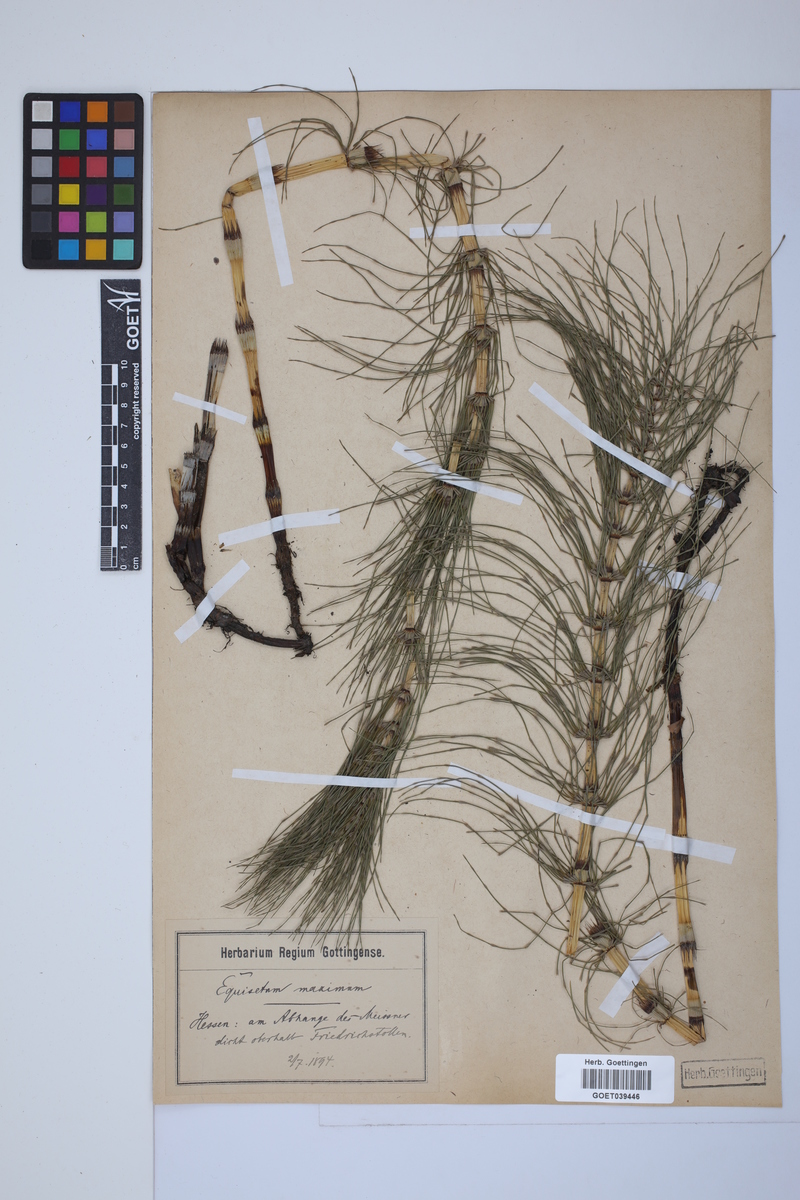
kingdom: Plantae
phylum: Tracheophyta
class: Polypodiopsida
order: Equisetales
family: Equisetaceae
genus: Equisetum
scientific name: Equisetum telmateia
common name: Great horsetail
